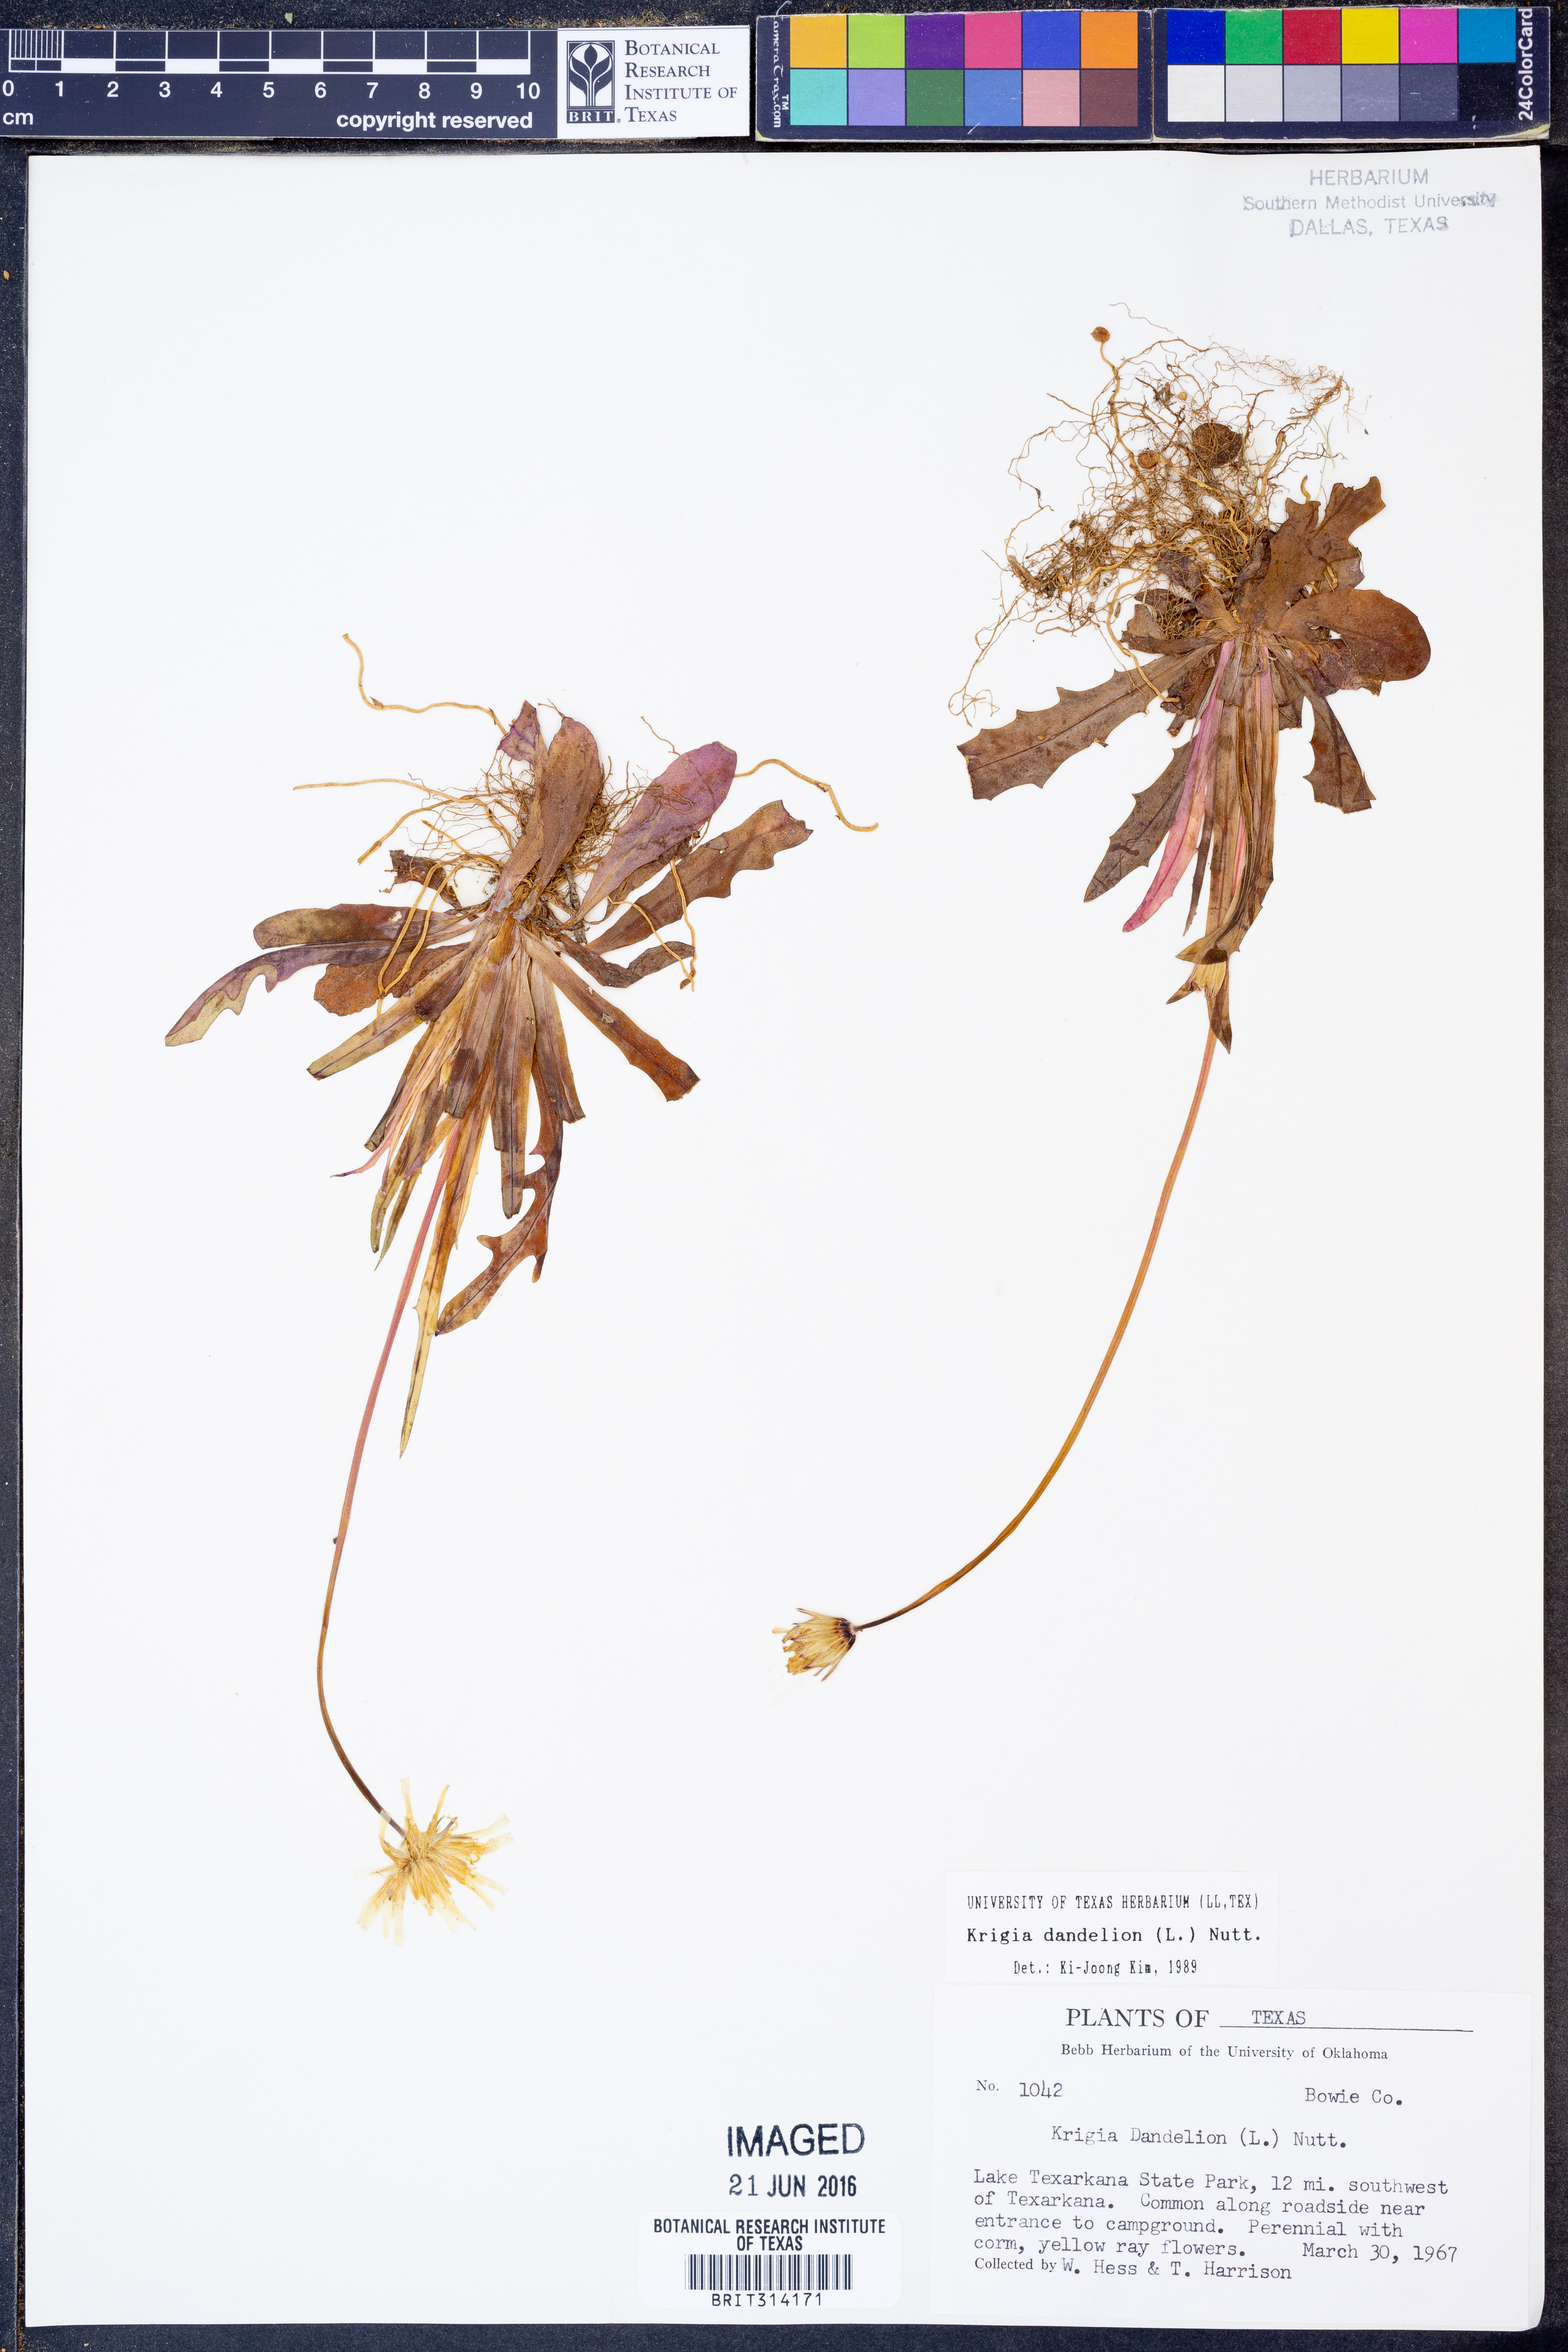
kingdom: Plantae
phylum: Tracheophyta
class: Magnoliopsida
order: Asterales
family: Asteraceae
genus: Krigia
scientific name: Krigia dandelion
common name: Colonial dwarf-dandelion
